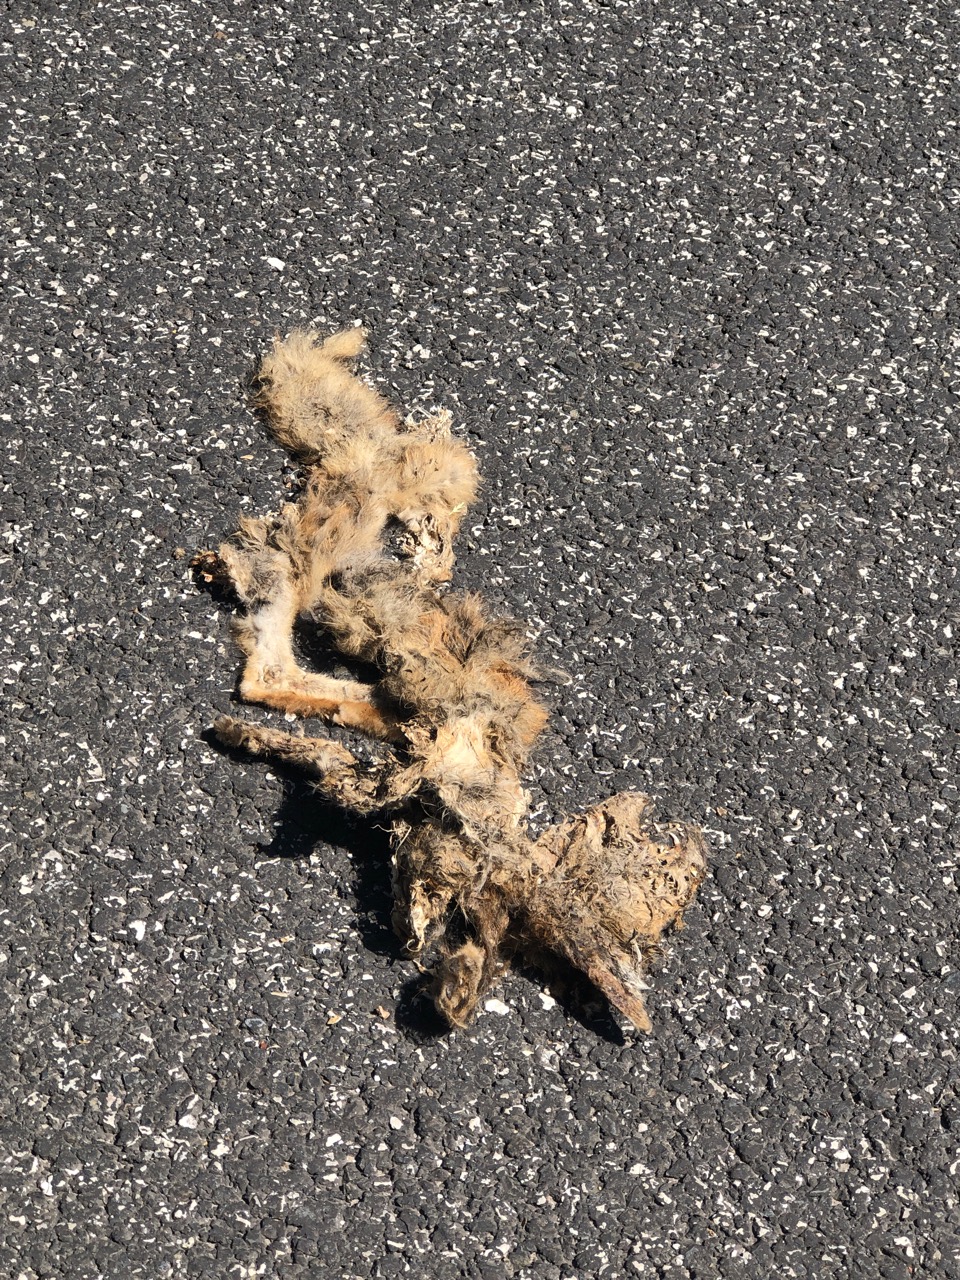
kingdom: Animalia
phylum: Chordata
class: Mammalia
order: Carnivora
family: Canidae
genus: Vulpes
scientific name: Vulpes vulpes
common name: Red fox
